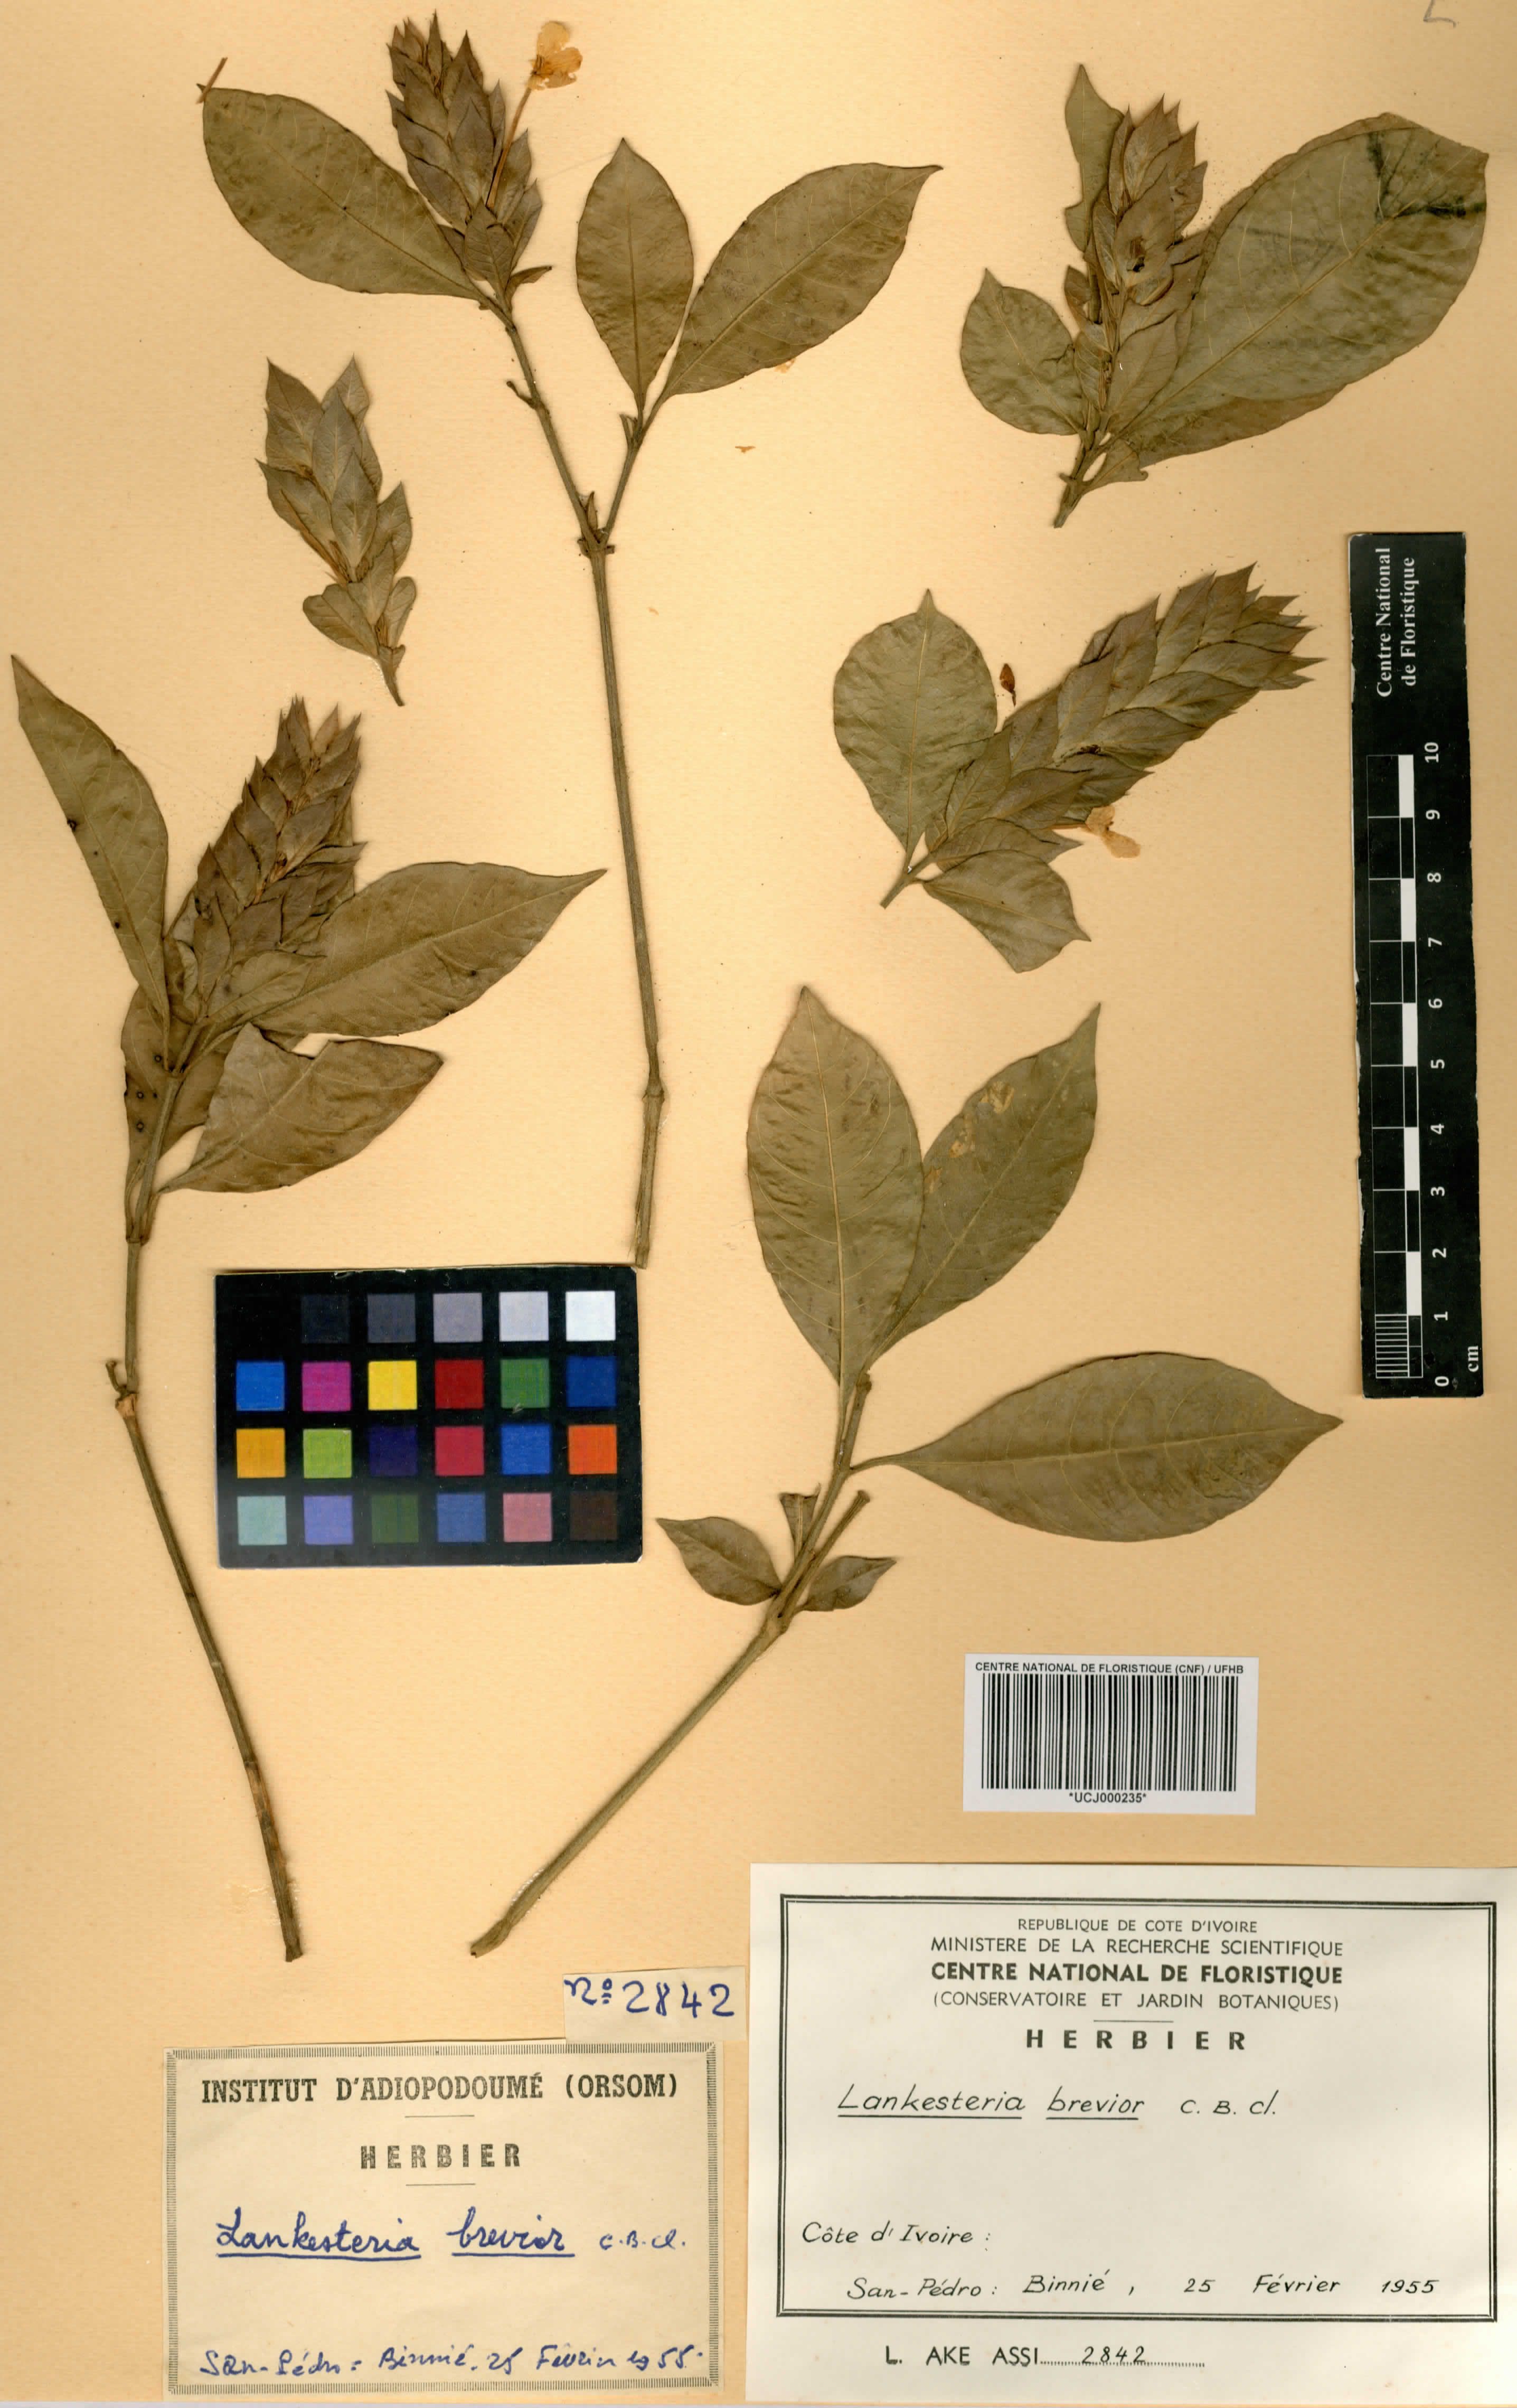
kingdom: Plantae
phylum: Tracheophyta
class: Magnoliopsida
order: Lamiales
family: Acanthaceae
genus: Lankesteria
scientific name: Lankesteria brevior
